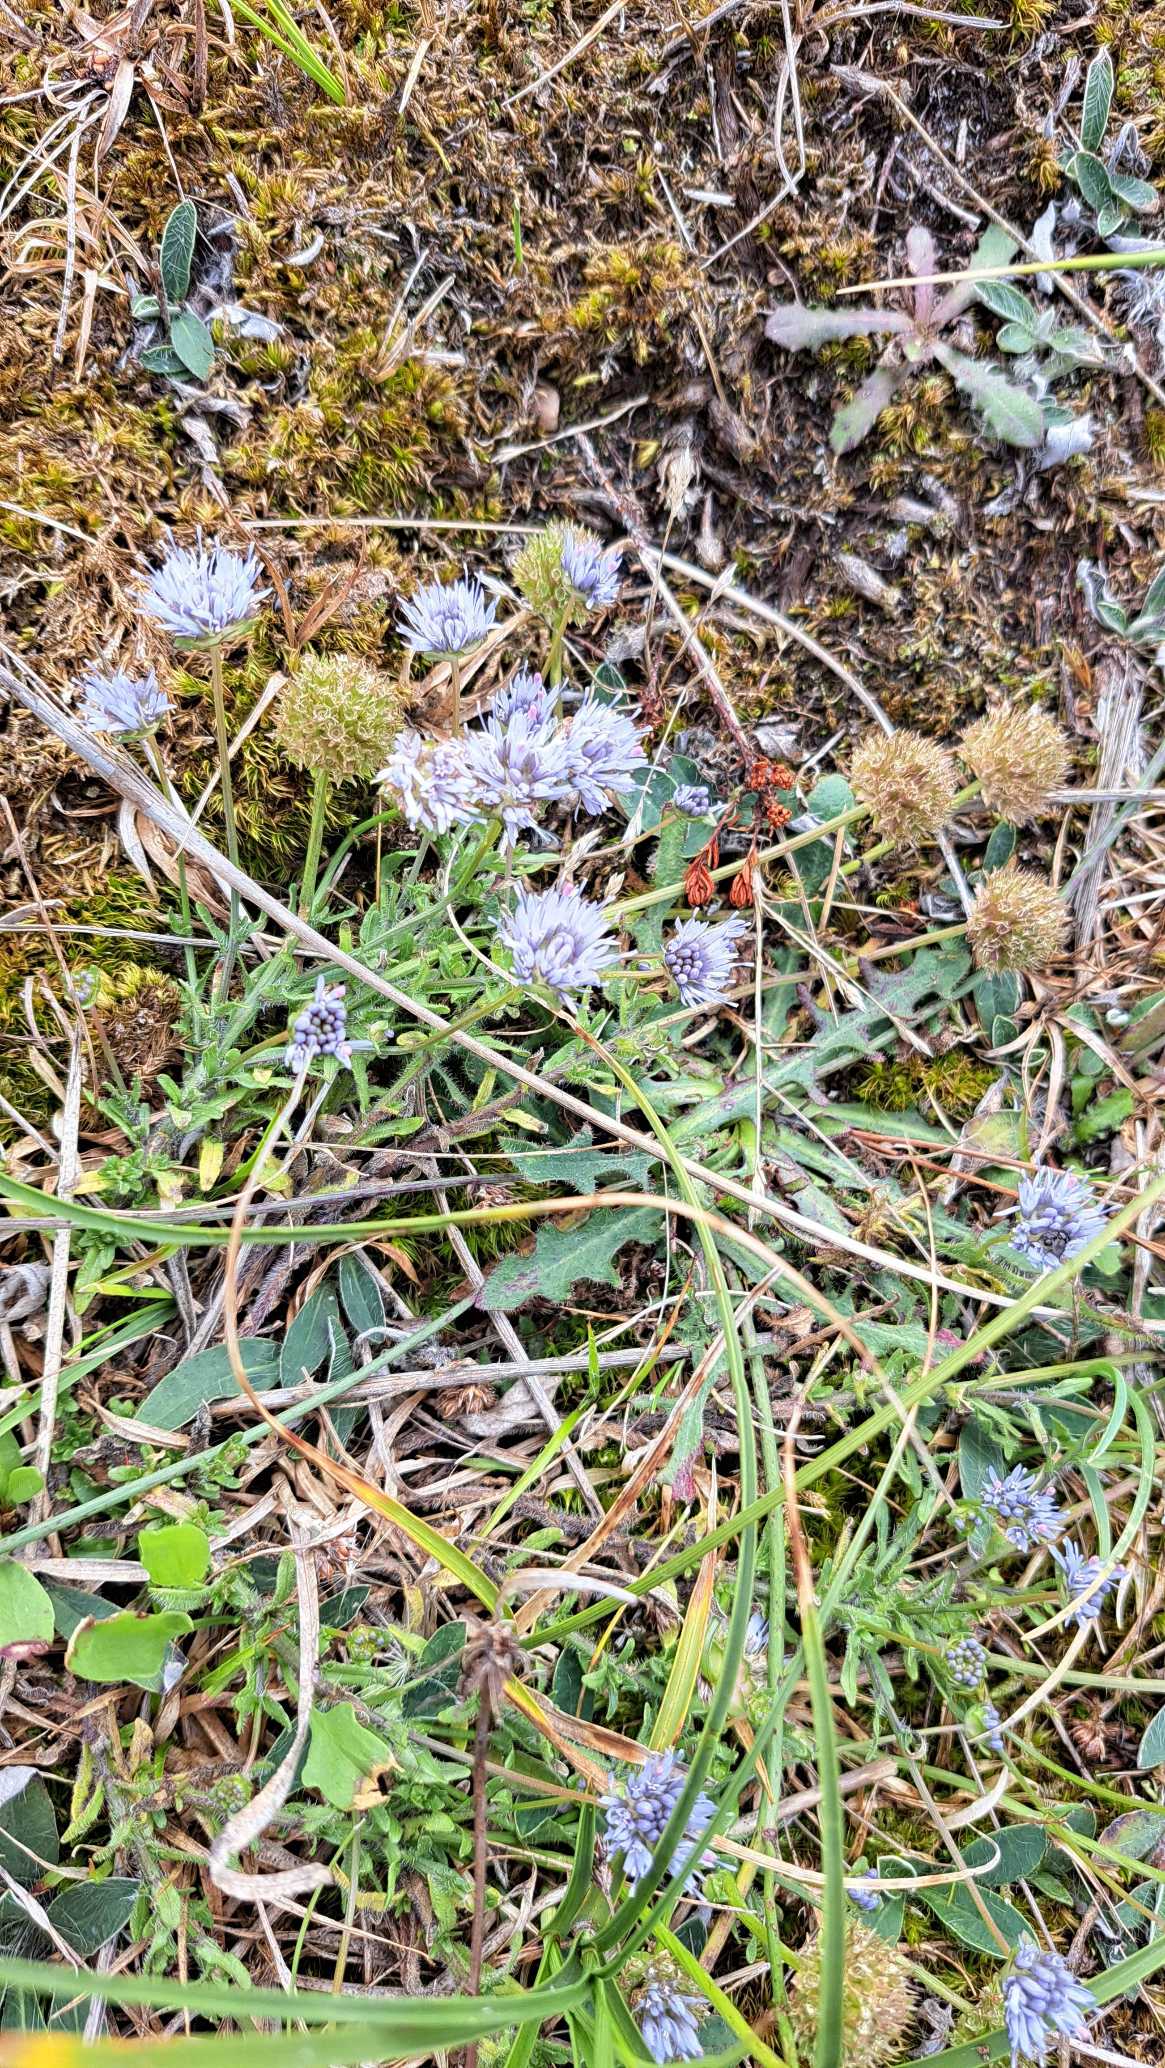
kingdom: Plantae
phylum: Tracheophyta
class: Magnoliopsida
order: Asterales
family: Campanulaceae
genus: Jasione
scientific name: Jasione montana
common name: Blåmunke
